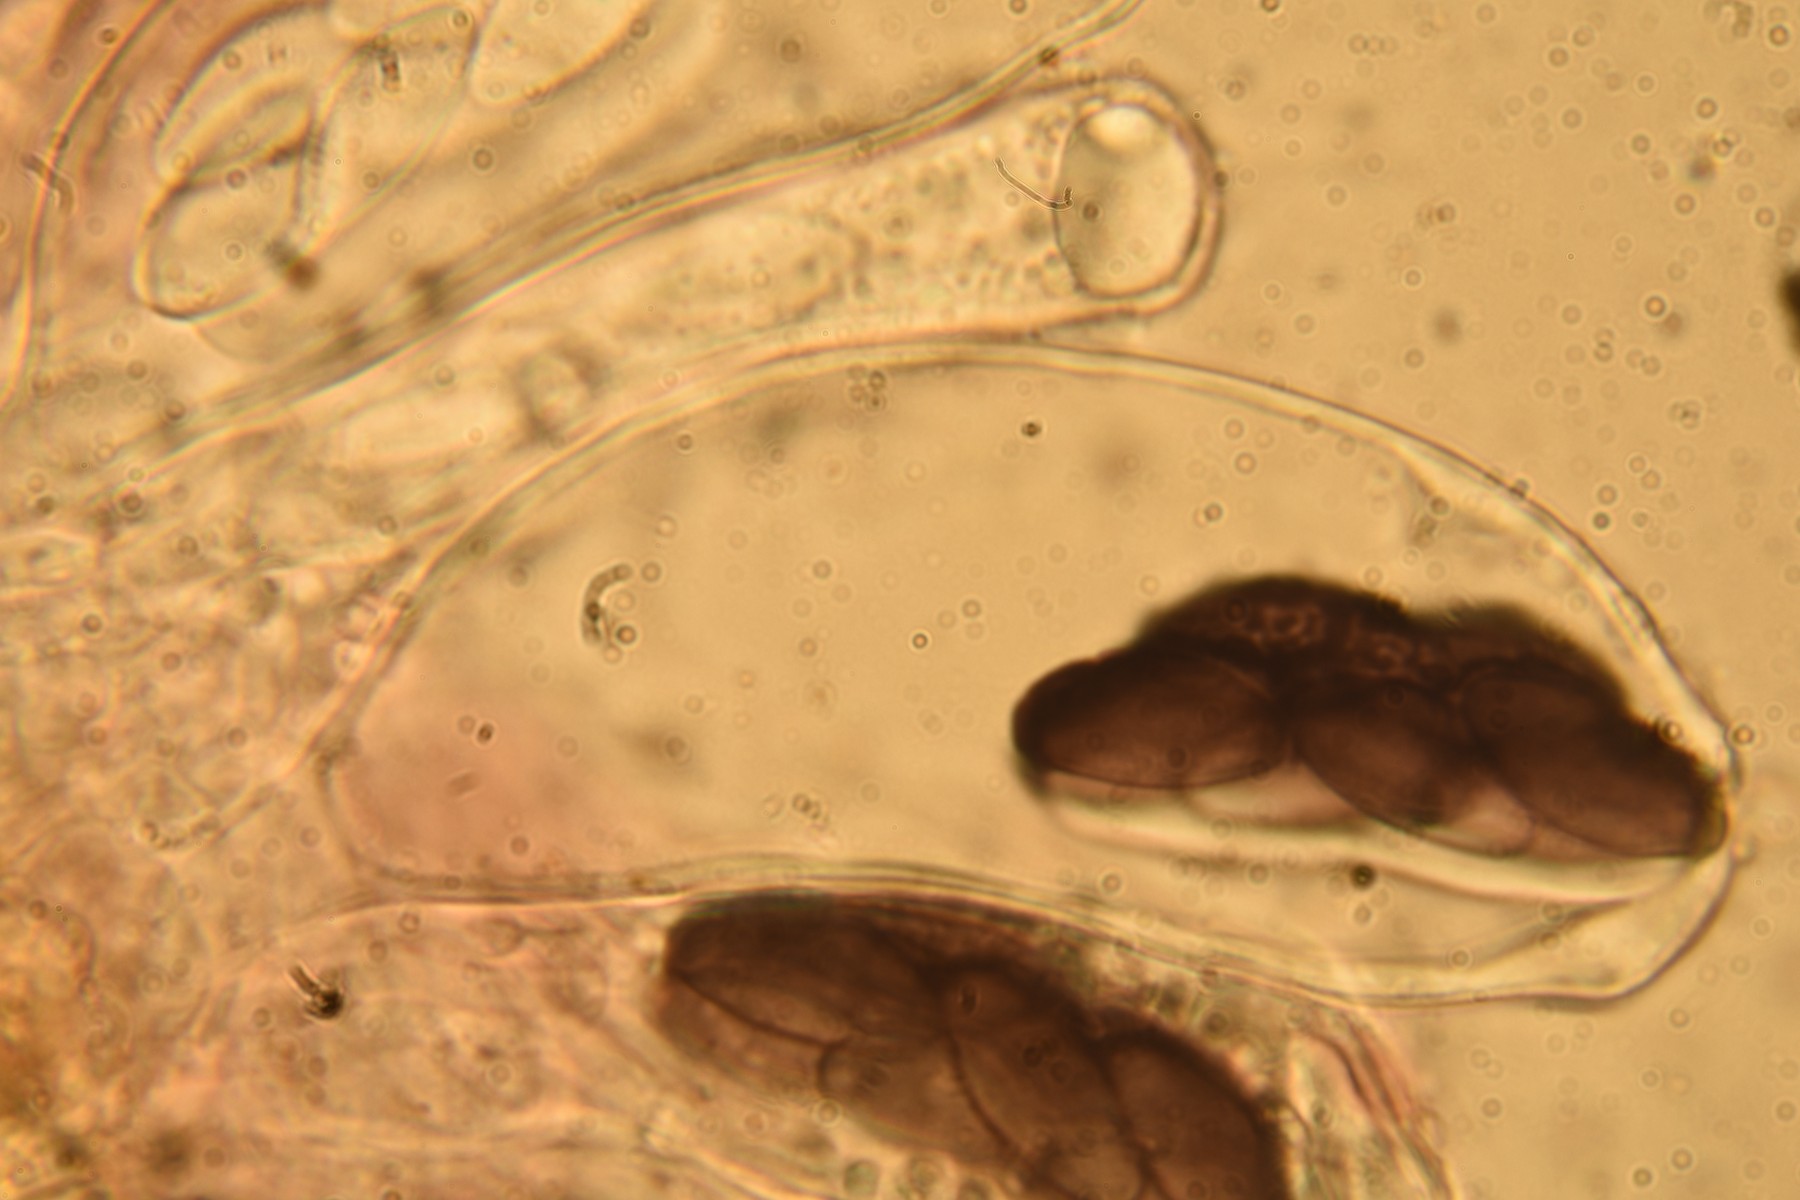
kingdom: Fungi
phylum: Ascomycota
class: Pezizomycetes
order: Pezizales
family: Ascobolaceae
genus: Saccobolus
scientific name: Saccobolus beckii
